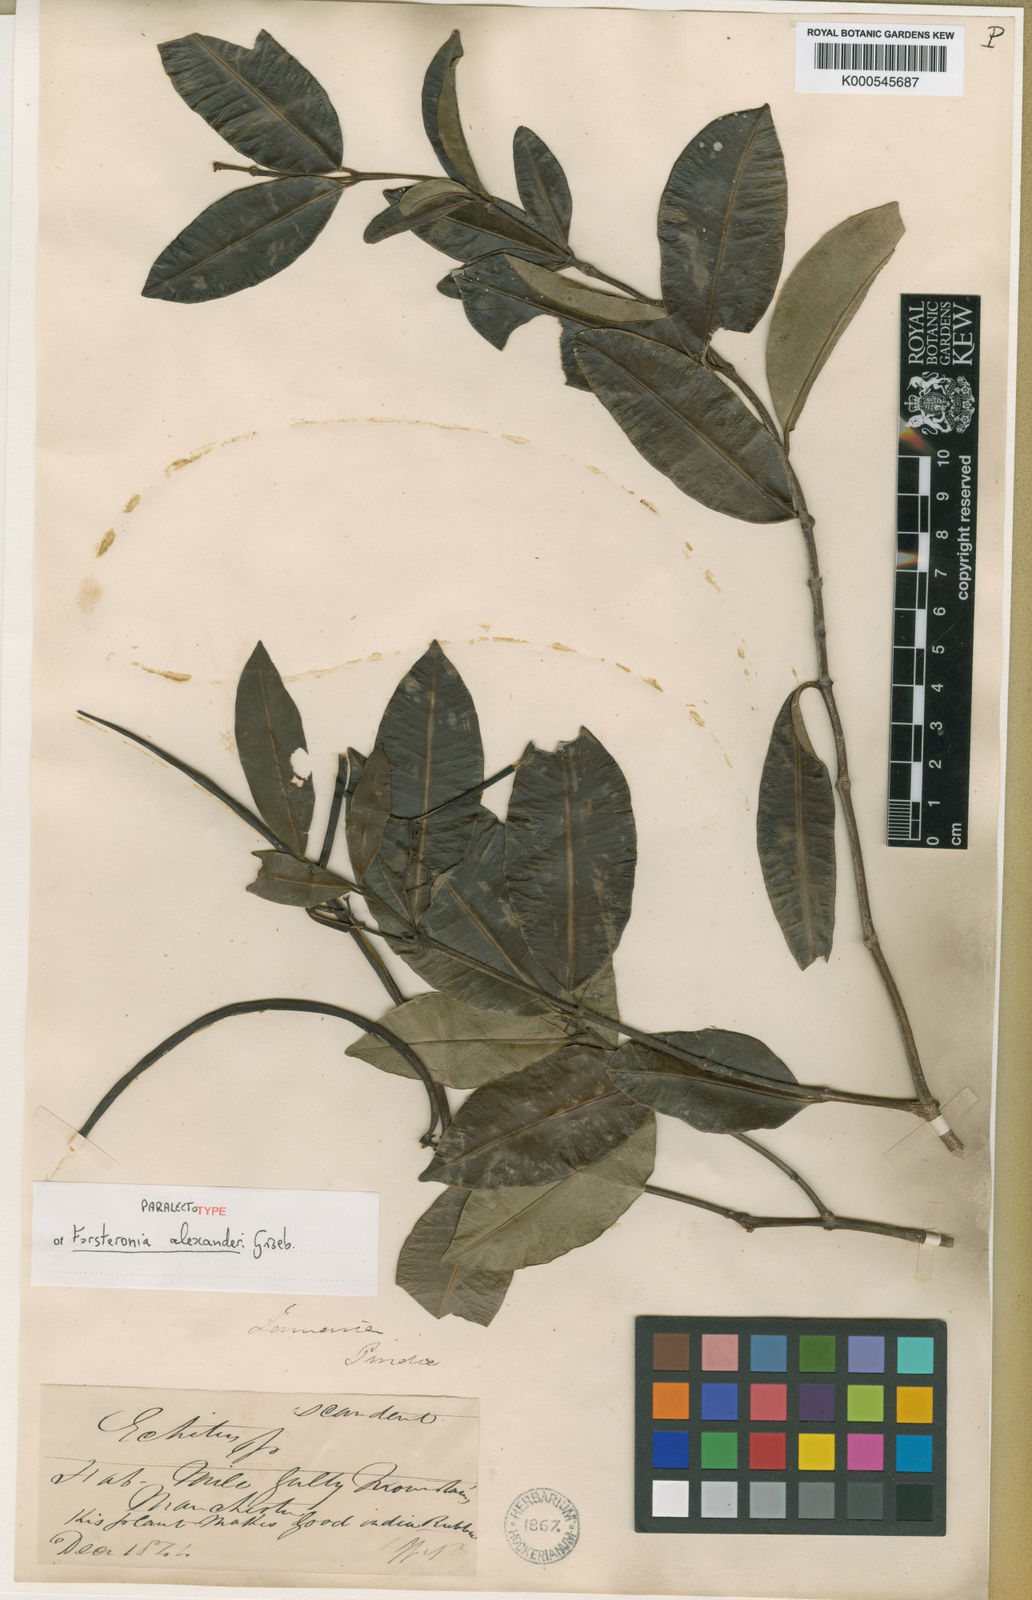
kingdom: Plantae
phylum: Tracheophyta
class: Magnoliopsida
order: Gentianales
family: Apocynaceae
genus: Pinochia
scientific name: Pinochia floribunda
